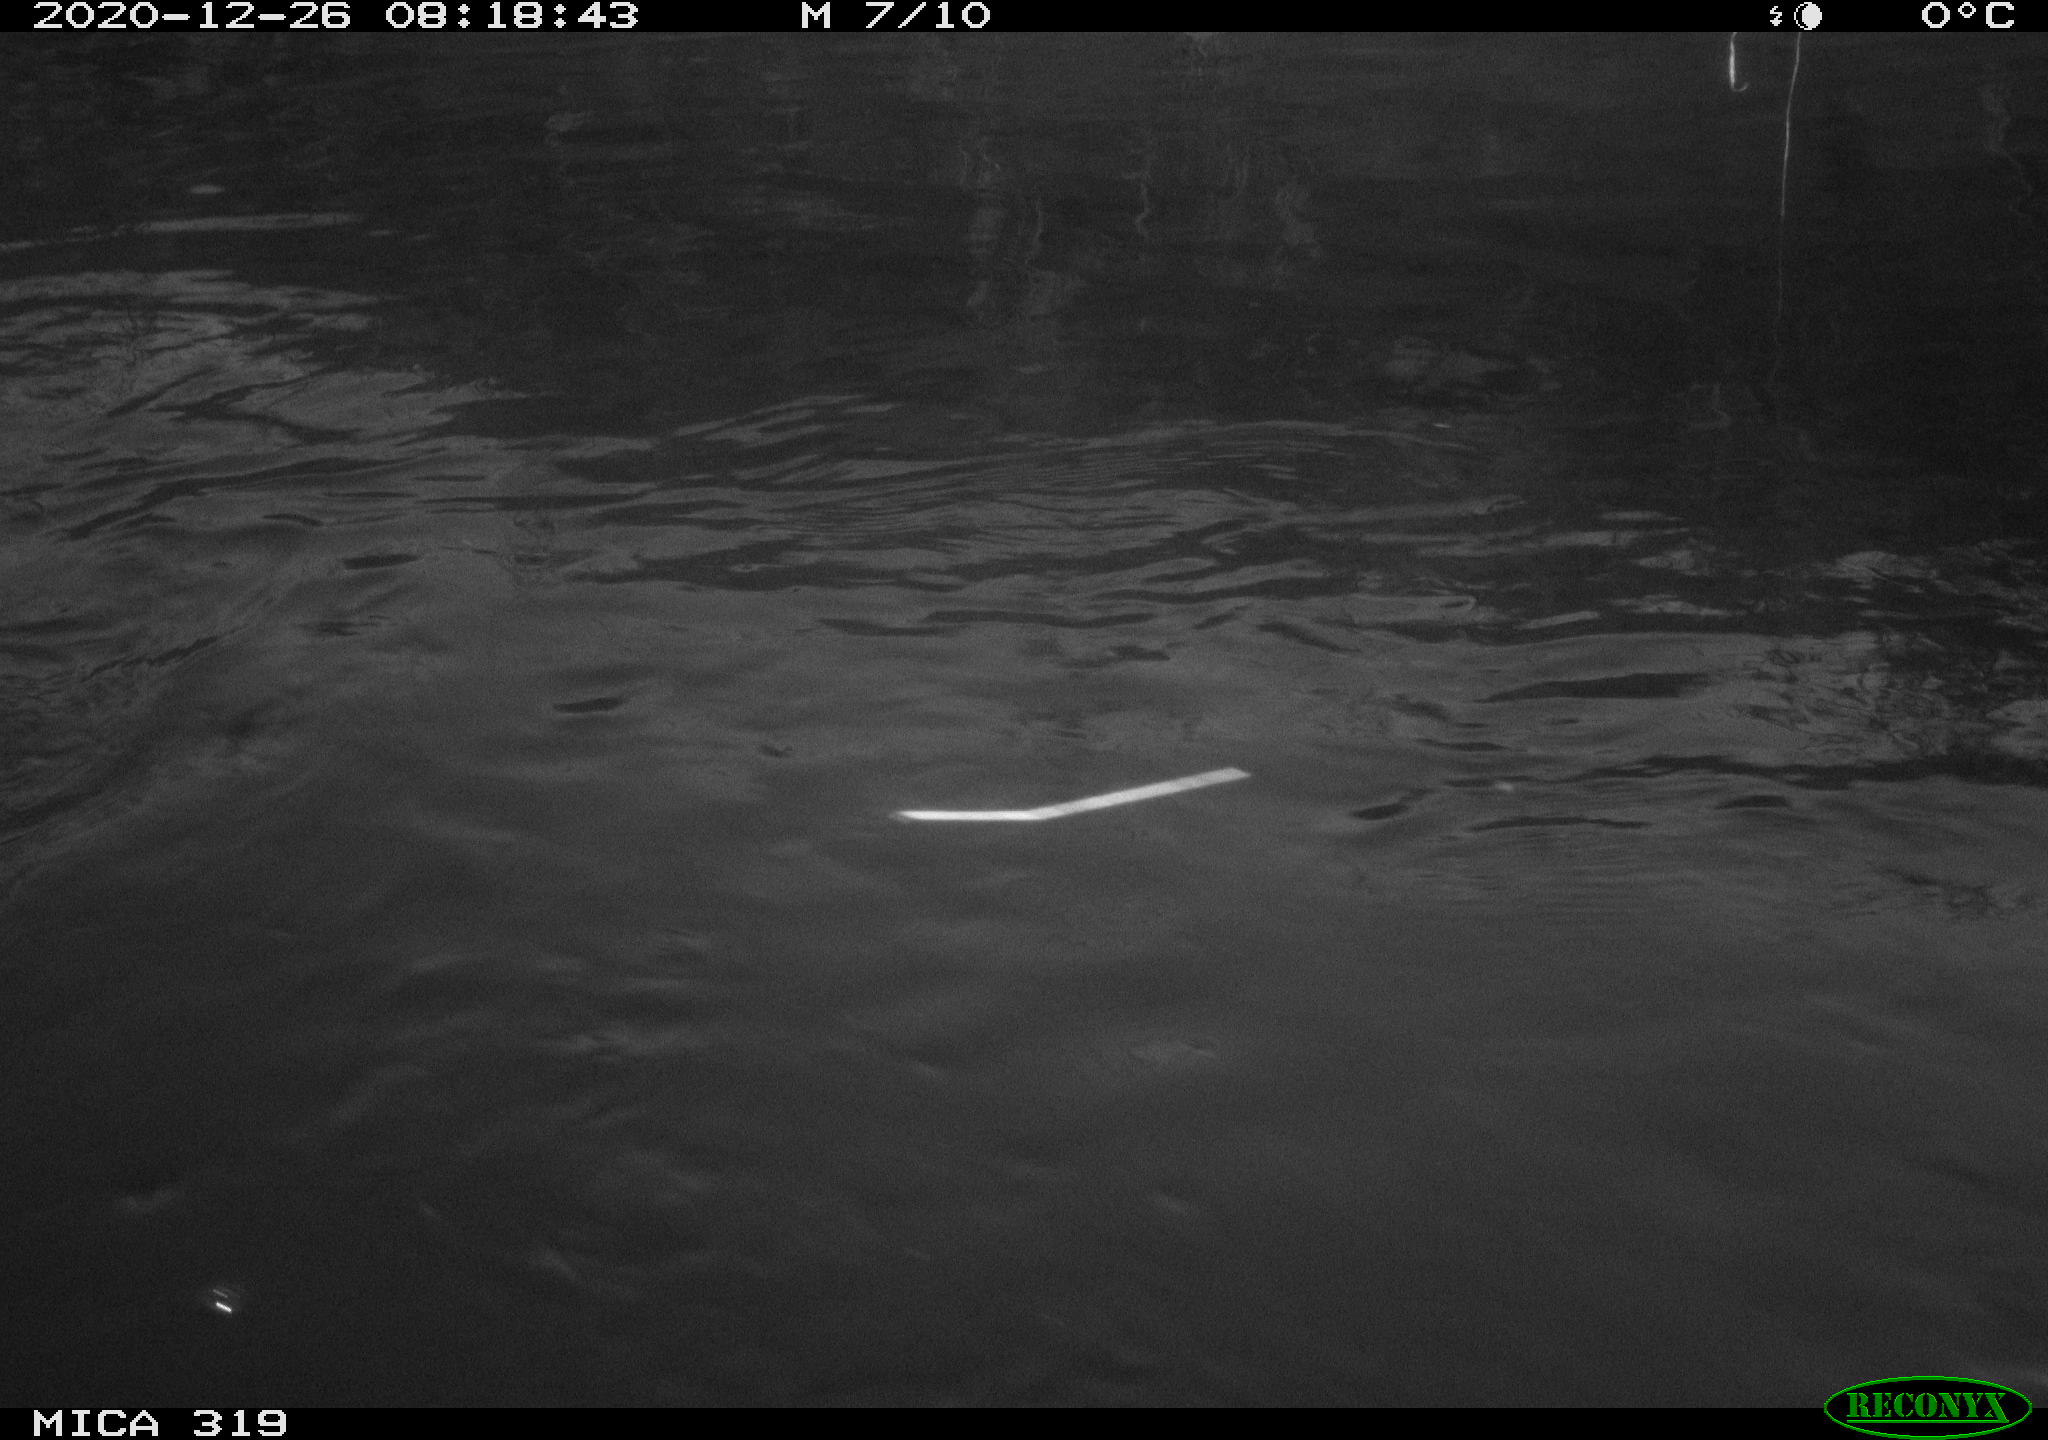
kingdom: Animalia
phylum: Chordata
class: Aves
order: Anseriformes
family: Anatidae
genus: Anas
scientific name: Anas platyrhynchos
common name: Mallard
